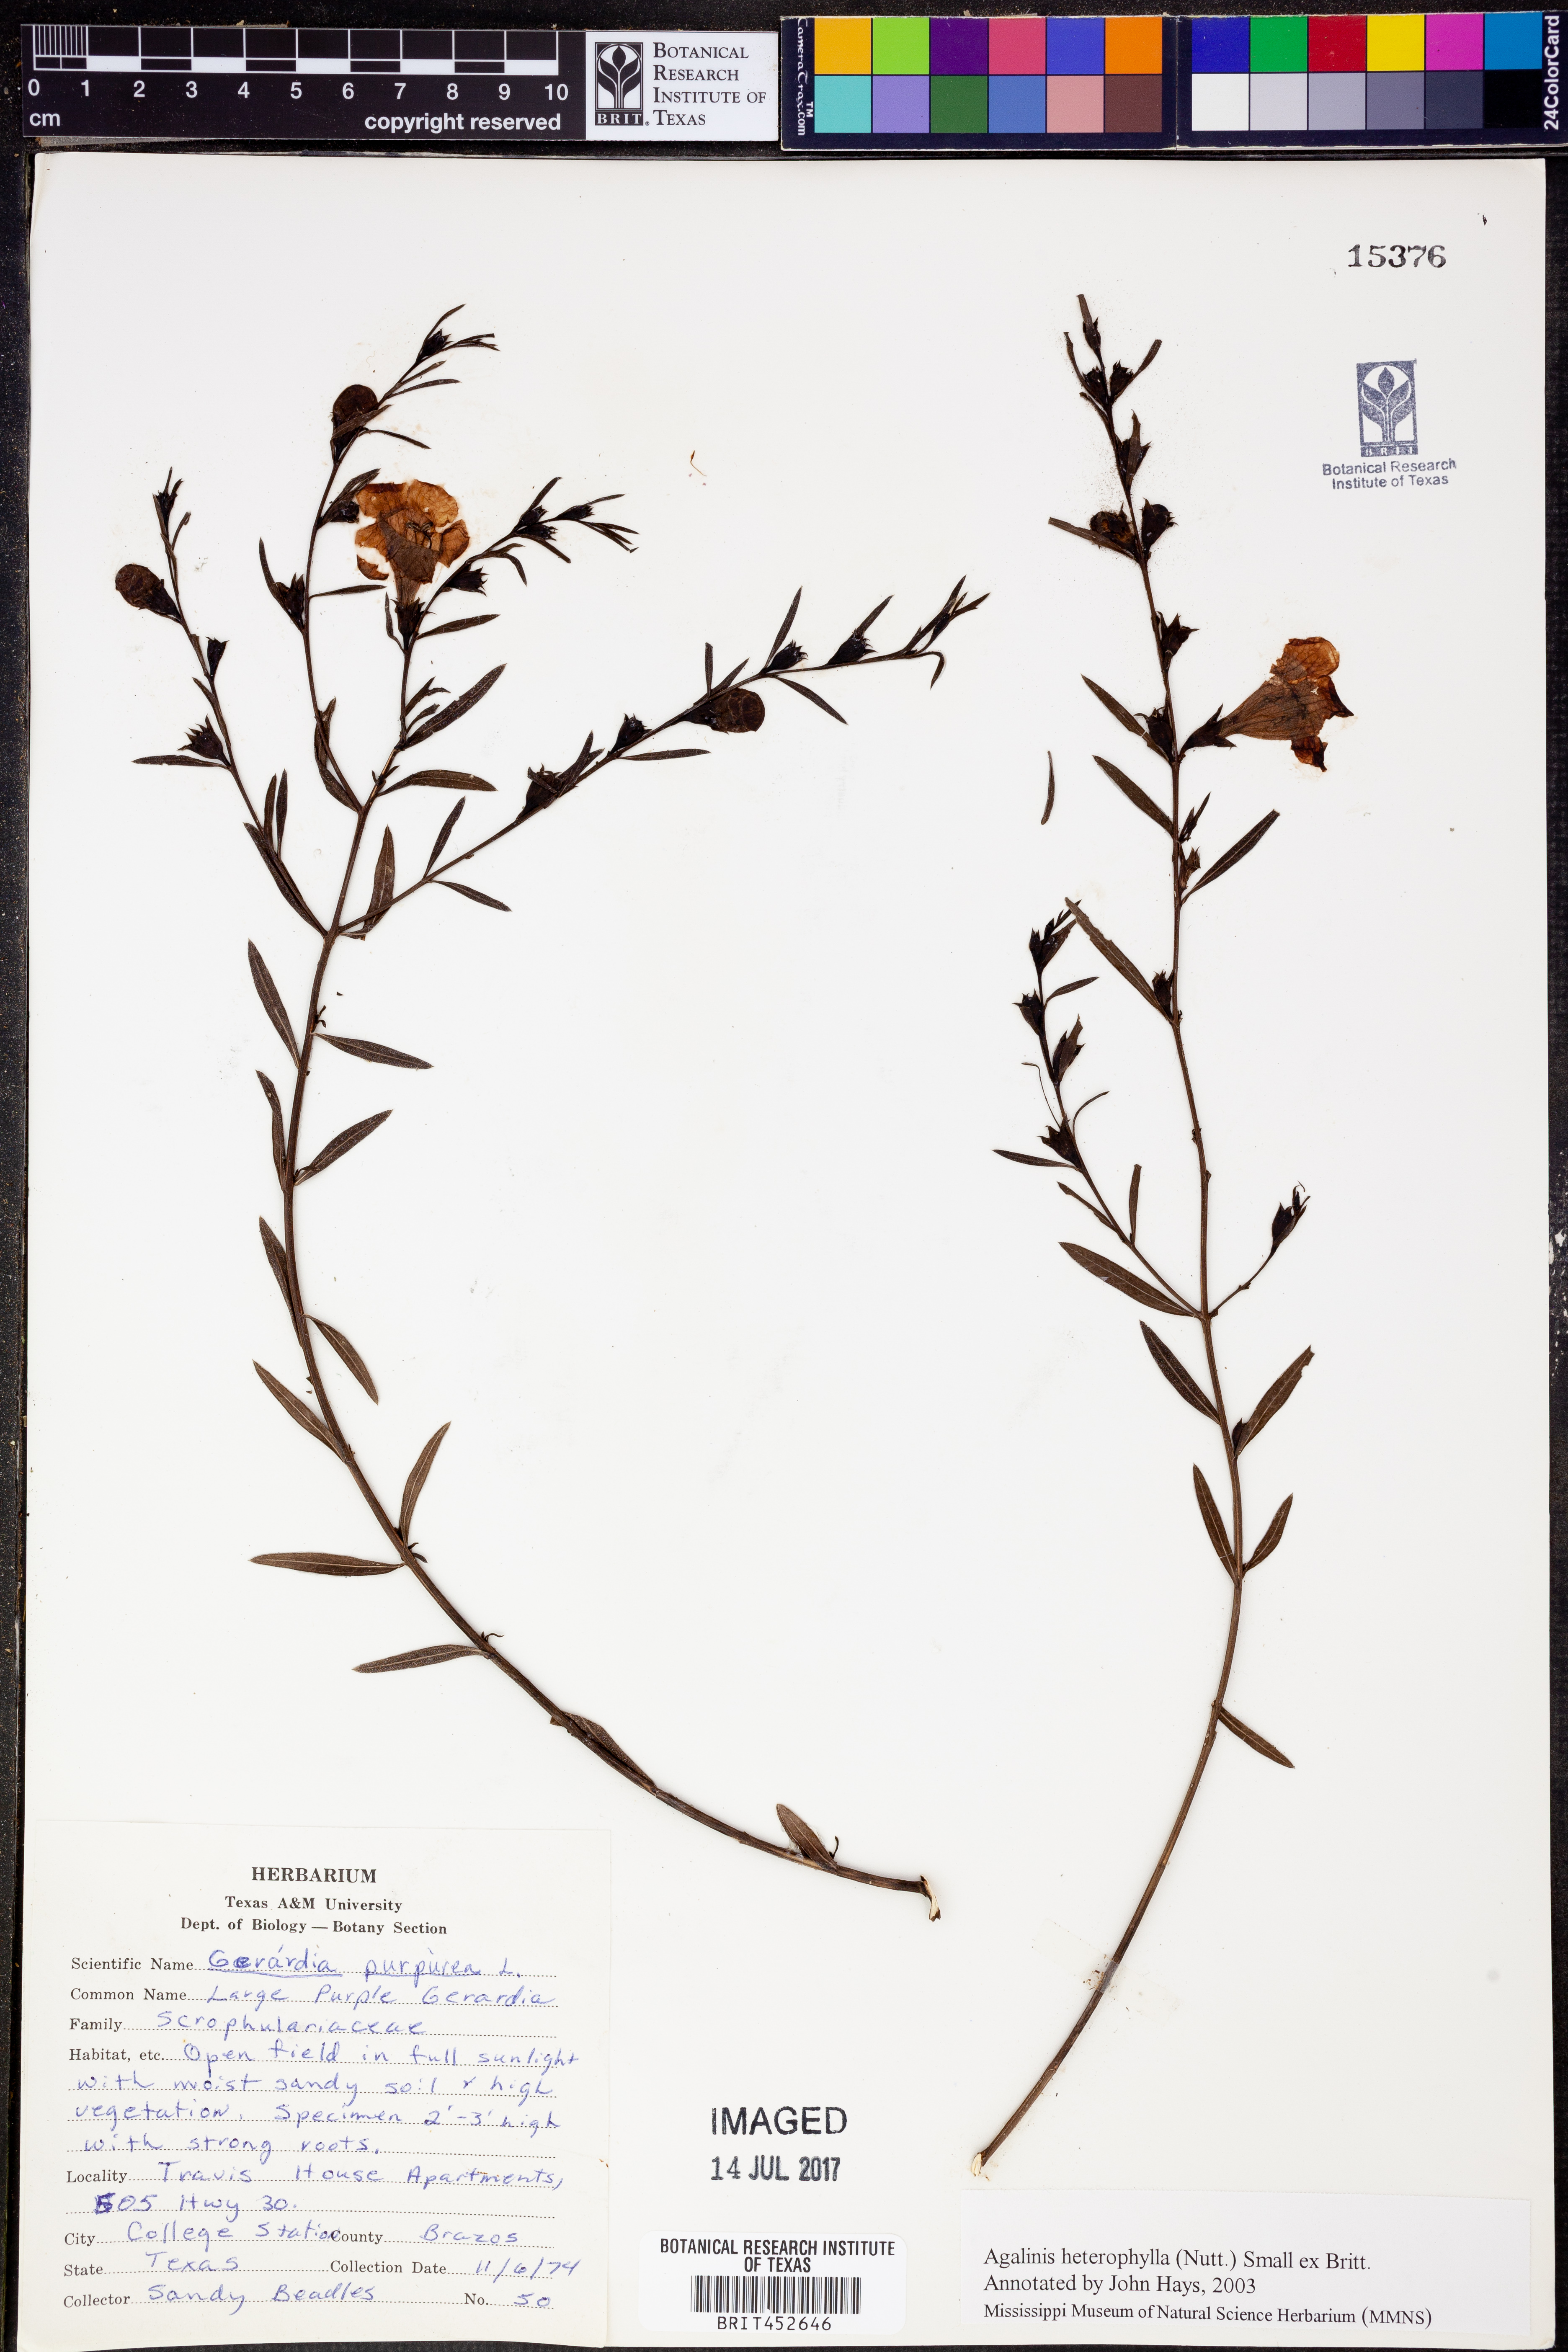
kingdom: Plantae
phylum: Tracheophyta
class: Magnoliopsida
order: Lamiales
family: Orobanchaceae
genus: Agalinis
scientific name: Agalinis heterophylla
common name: Prairie agalinis
